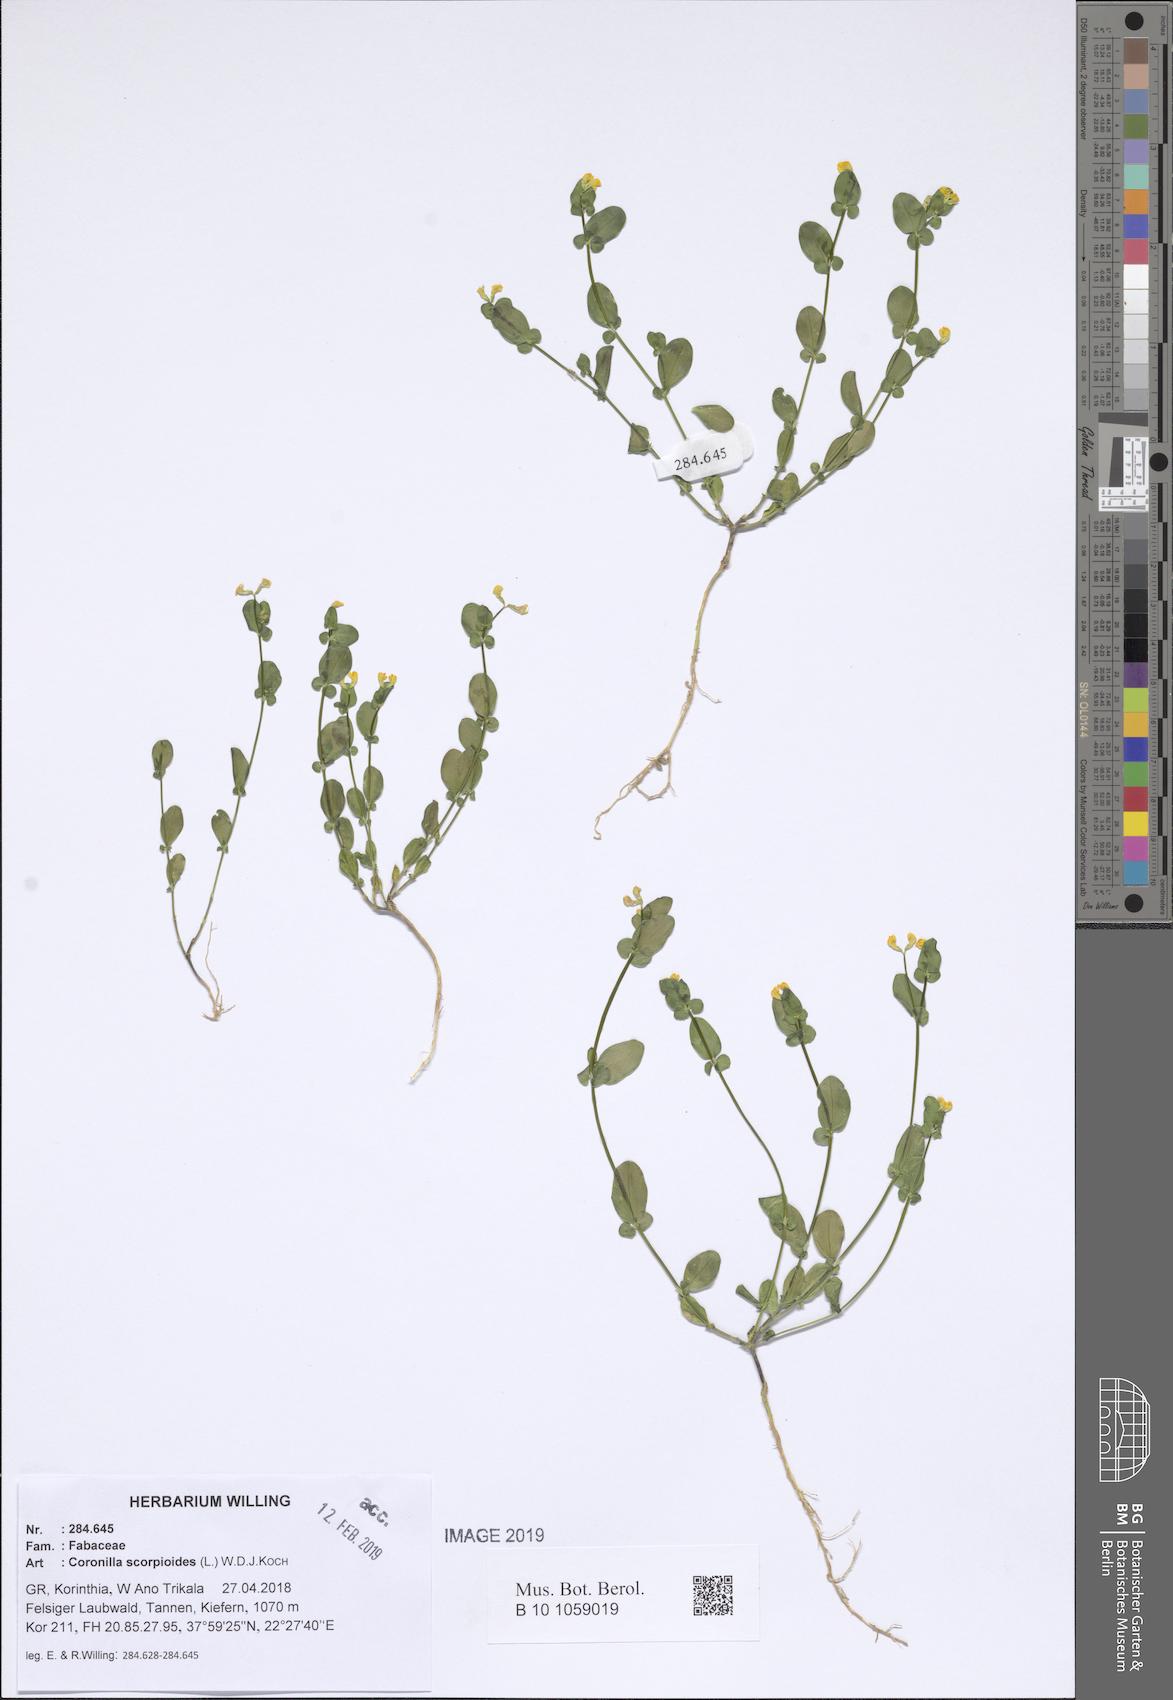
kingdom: Plantae
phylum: Tracheophyta
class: Magnoliopsida
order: Fabales
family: Fabaceae
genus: Coronilla
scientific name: Coronilla scorpioides
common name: Annual scorpion-vetch
